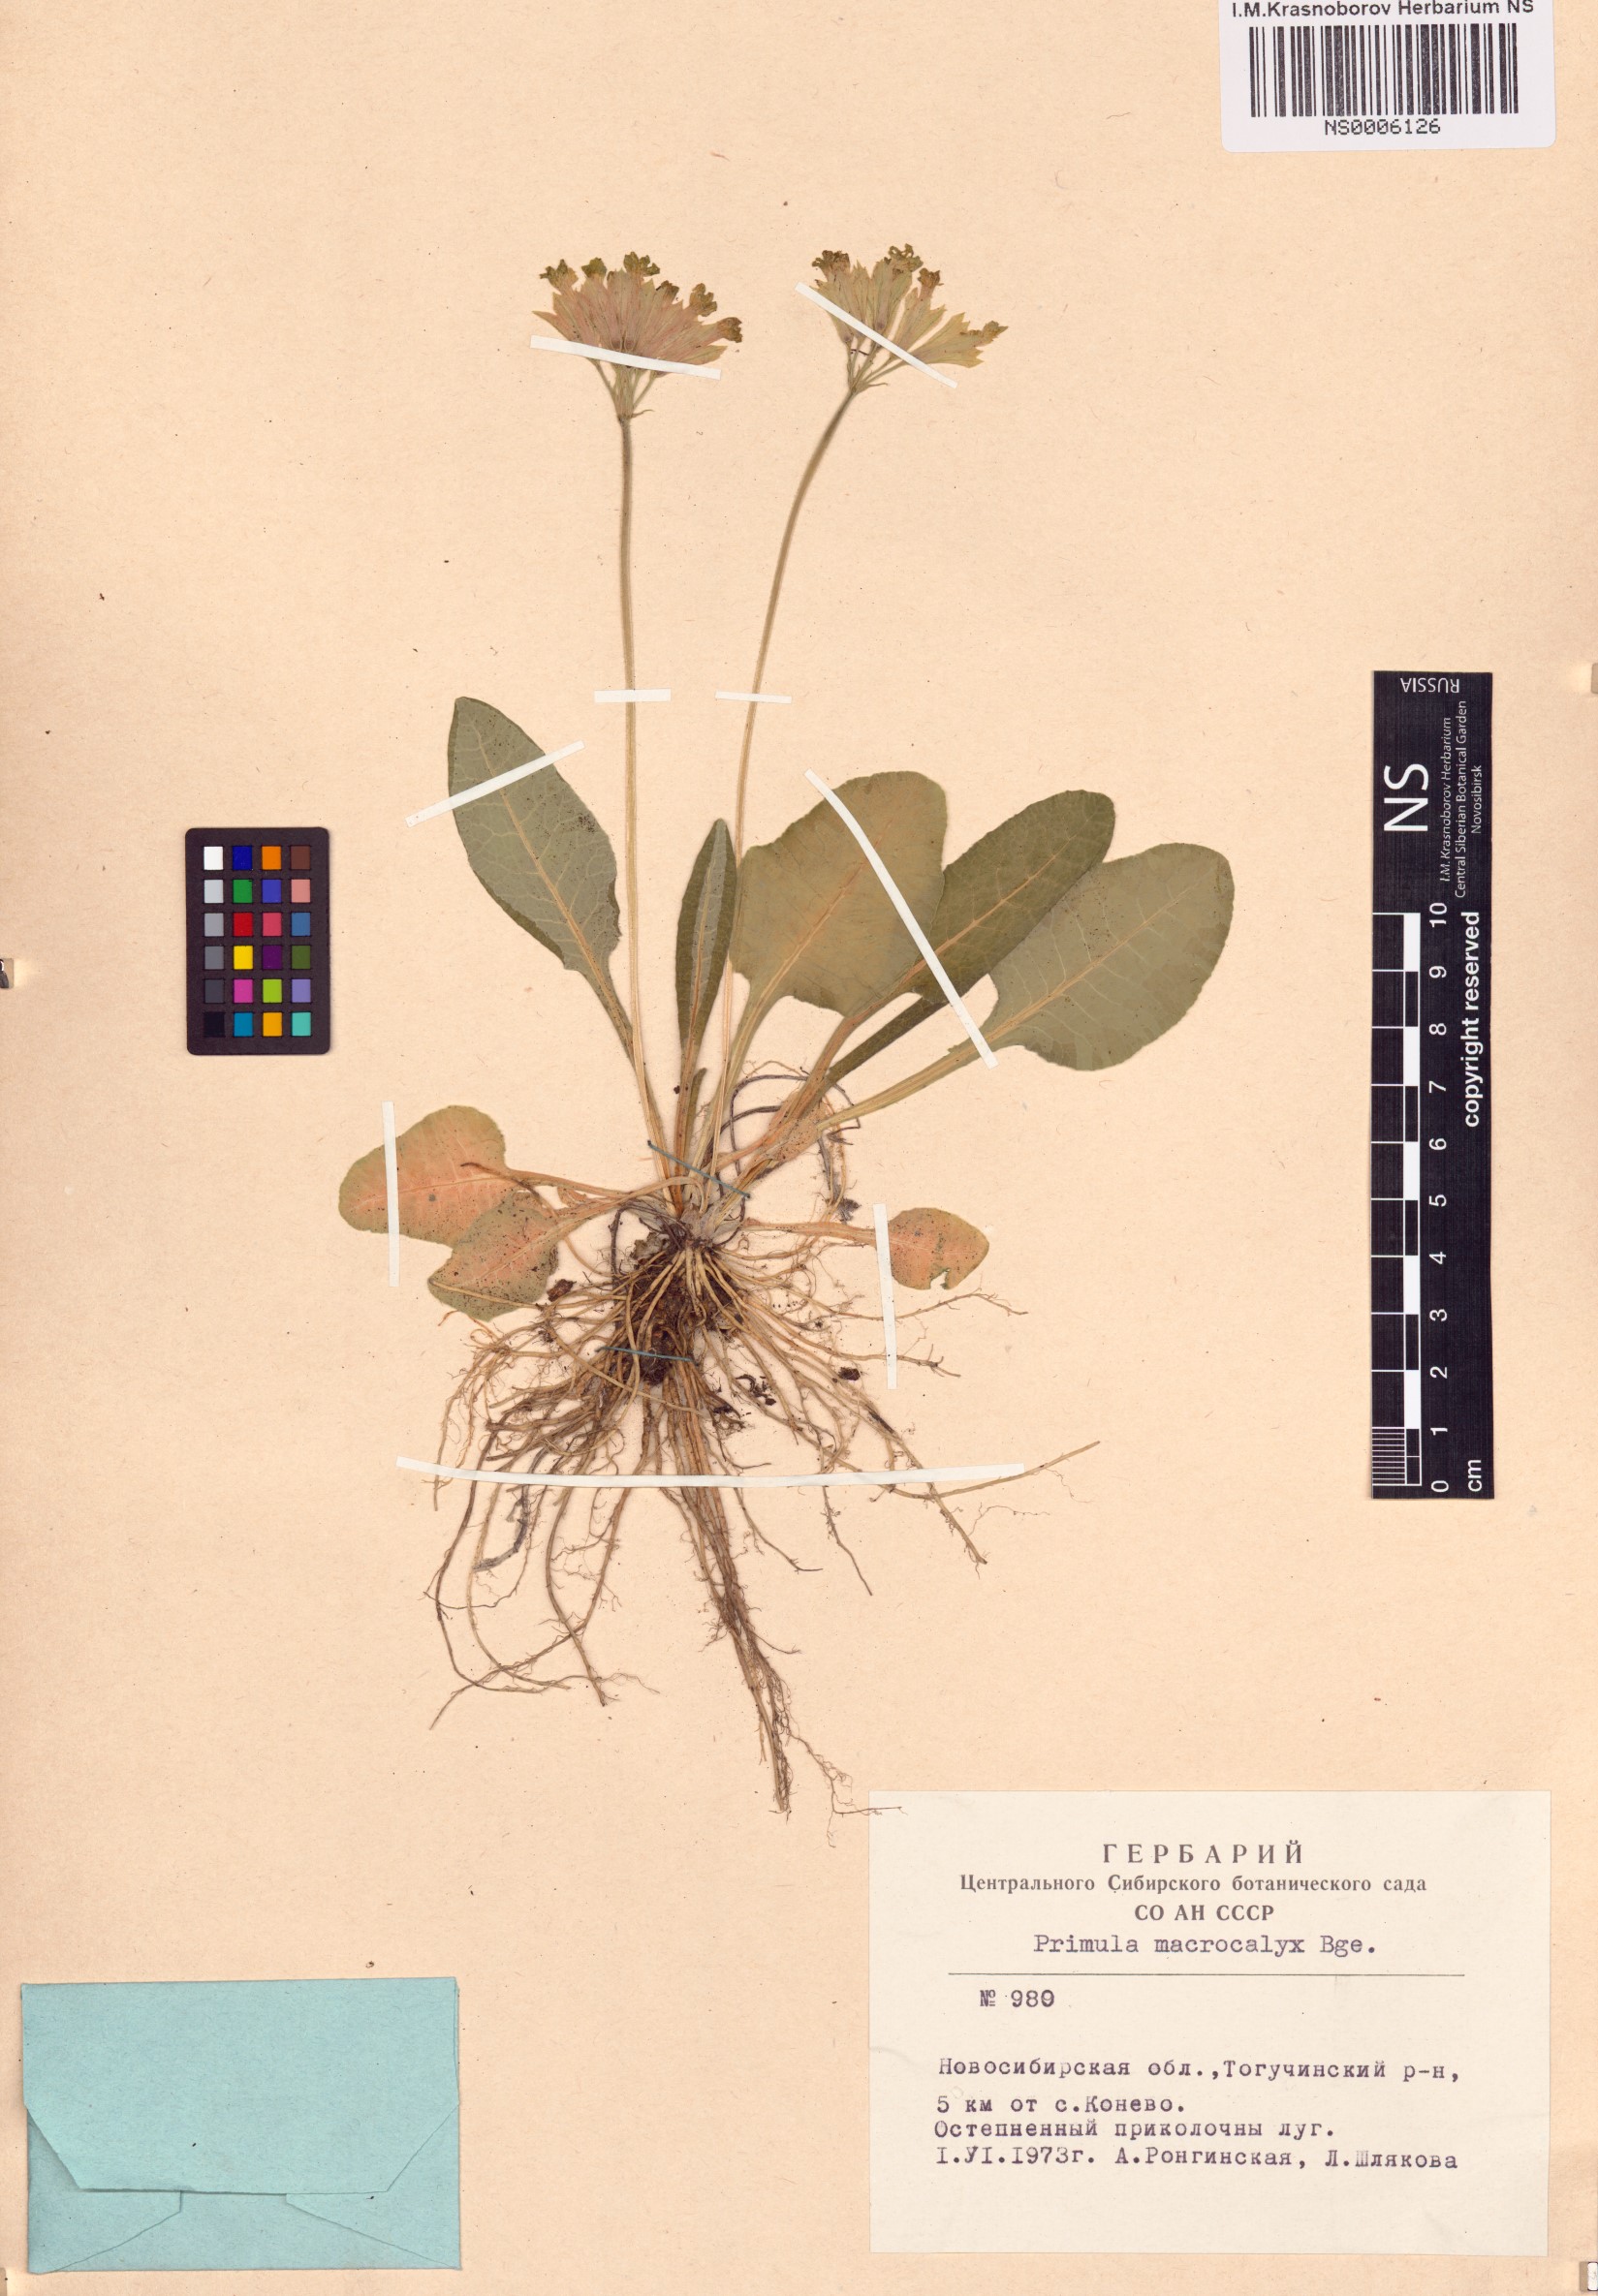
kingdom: Plantae
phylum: Tracheophyta
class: Magnoliopsida
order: Ericales
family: Primulaceae
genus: Primula
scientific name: Primula veris
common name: Cowslip
